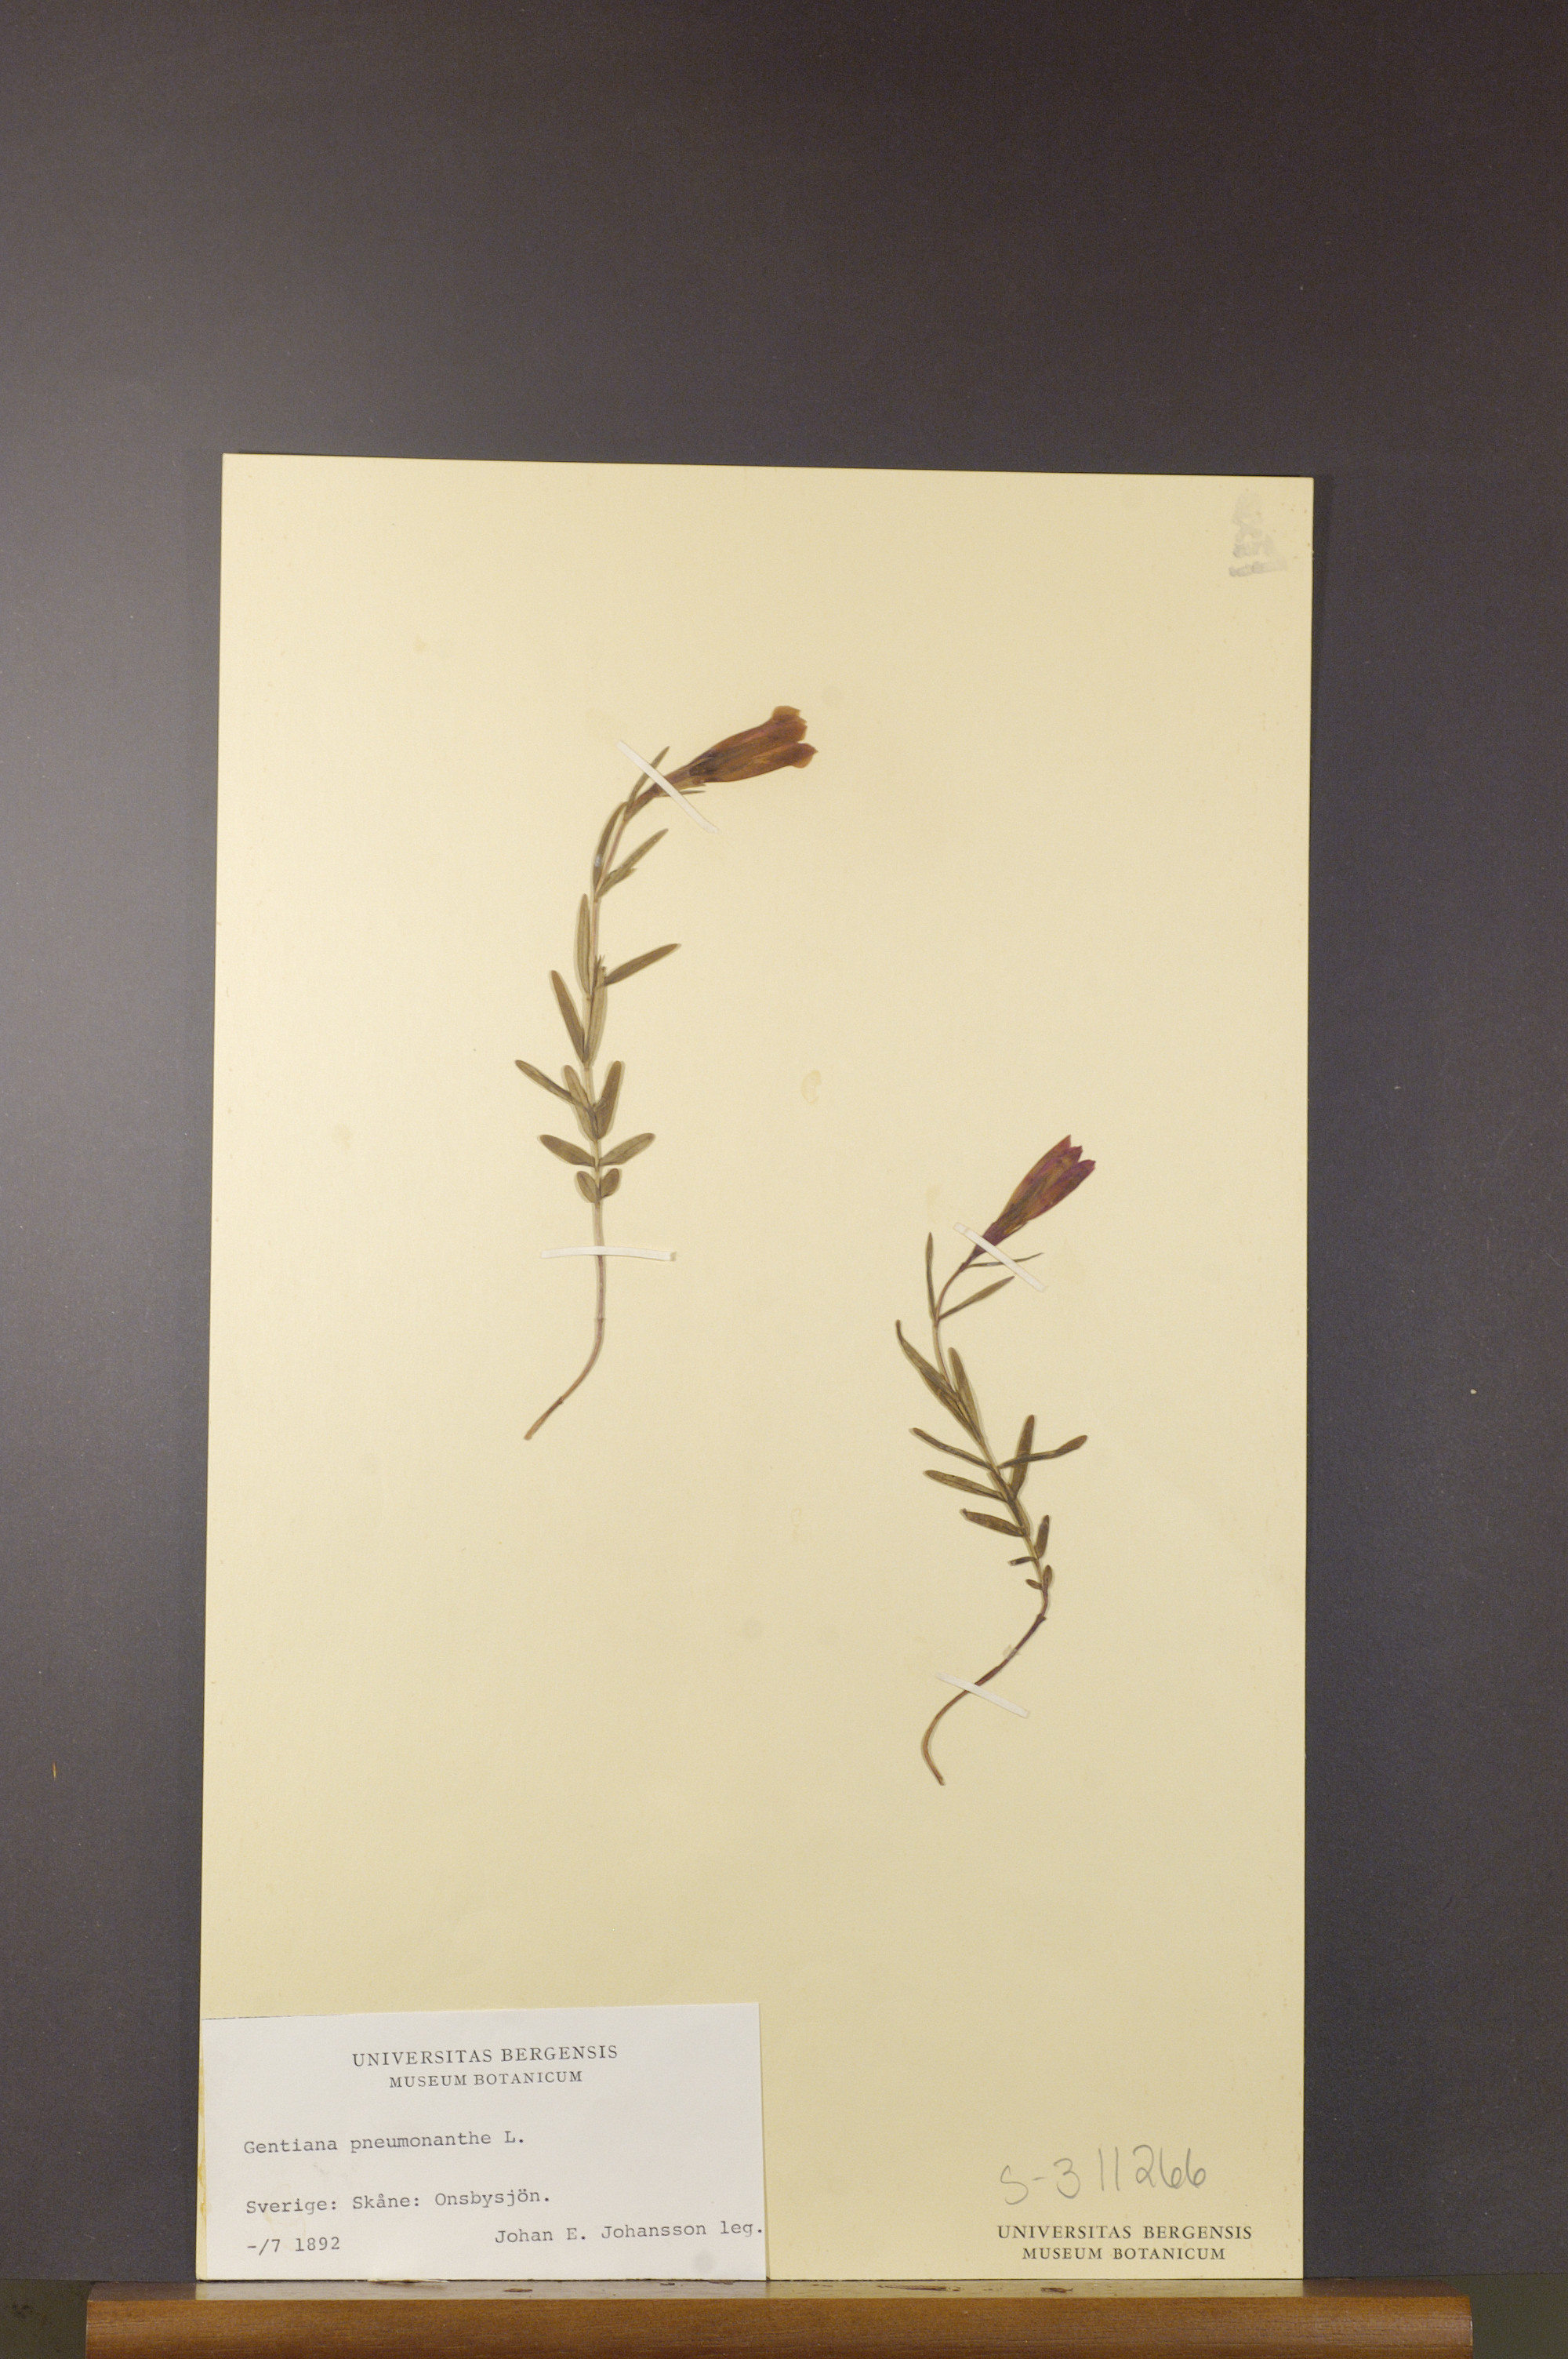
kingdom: Plantae
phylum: Tracheophyta
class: Magnoliopsida
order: Gentianales
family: Gentianaceae
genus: Gentiana
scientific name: Gentiana pneumonanthe
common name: Marsh gentian
